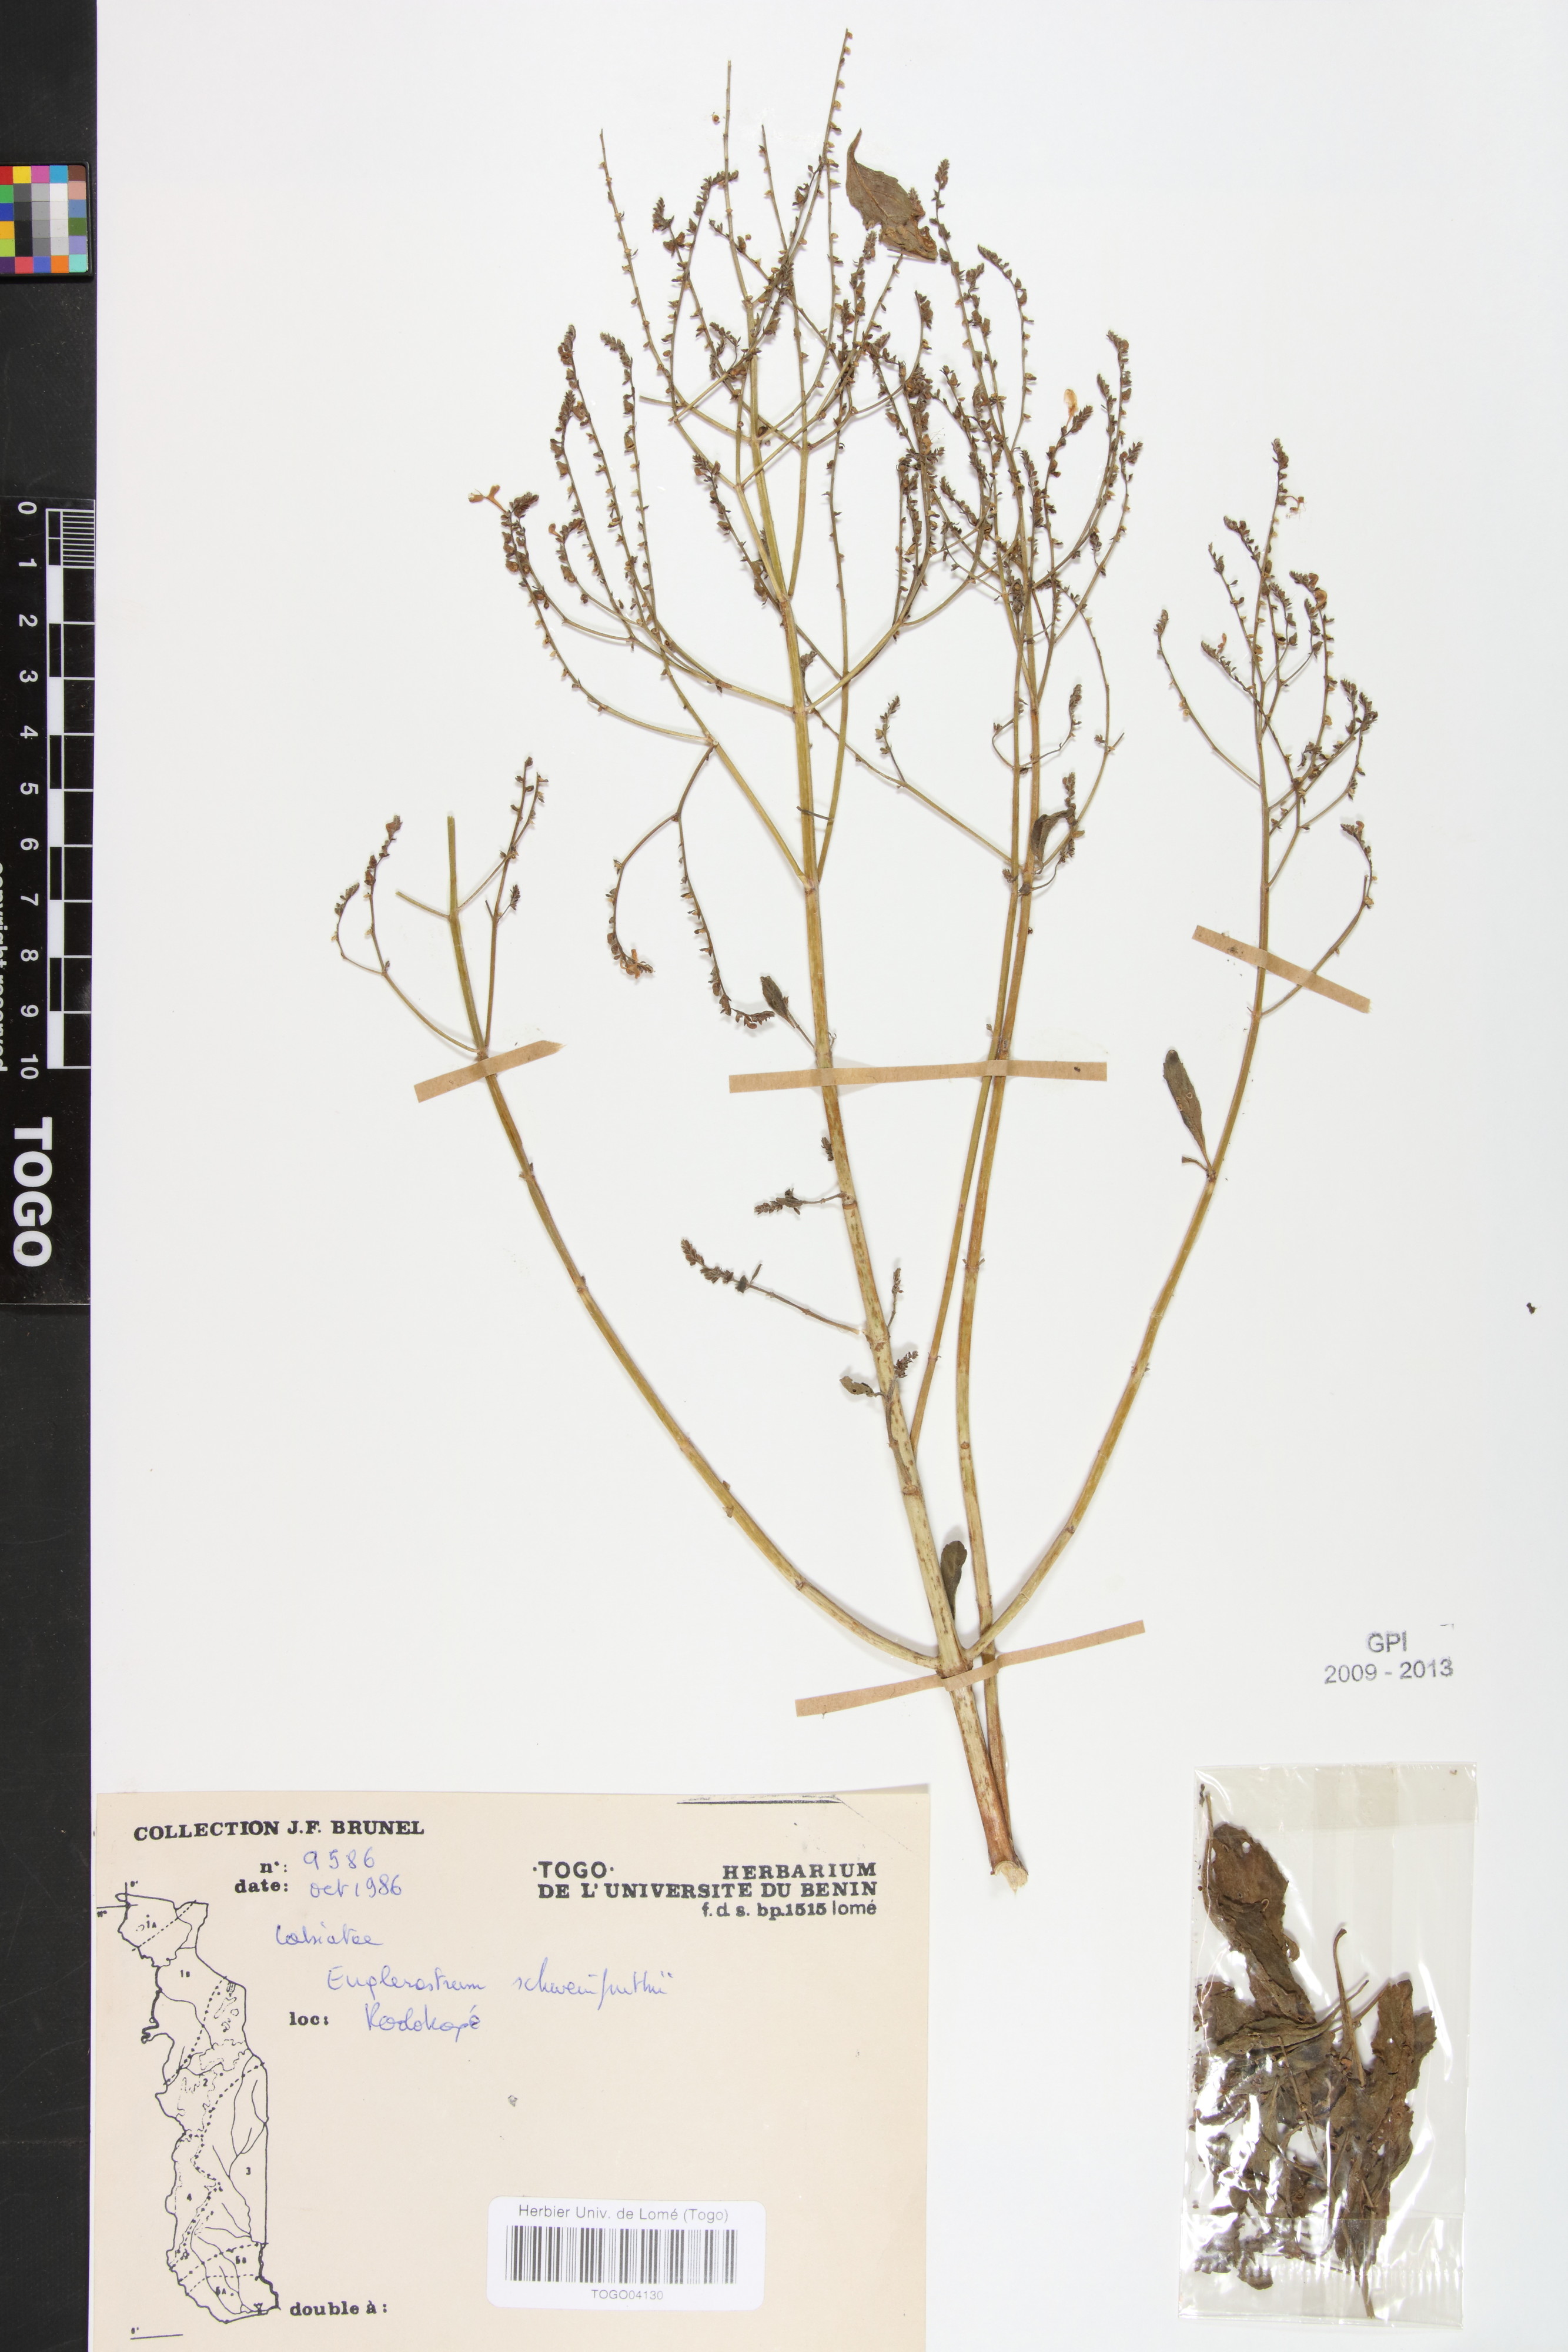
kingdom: Plantae
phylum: Tracheophyta
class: Magnoliopsida
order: Lamiales
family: Lamiaceae
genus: Coleus
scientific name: Coleus rhodesianum
